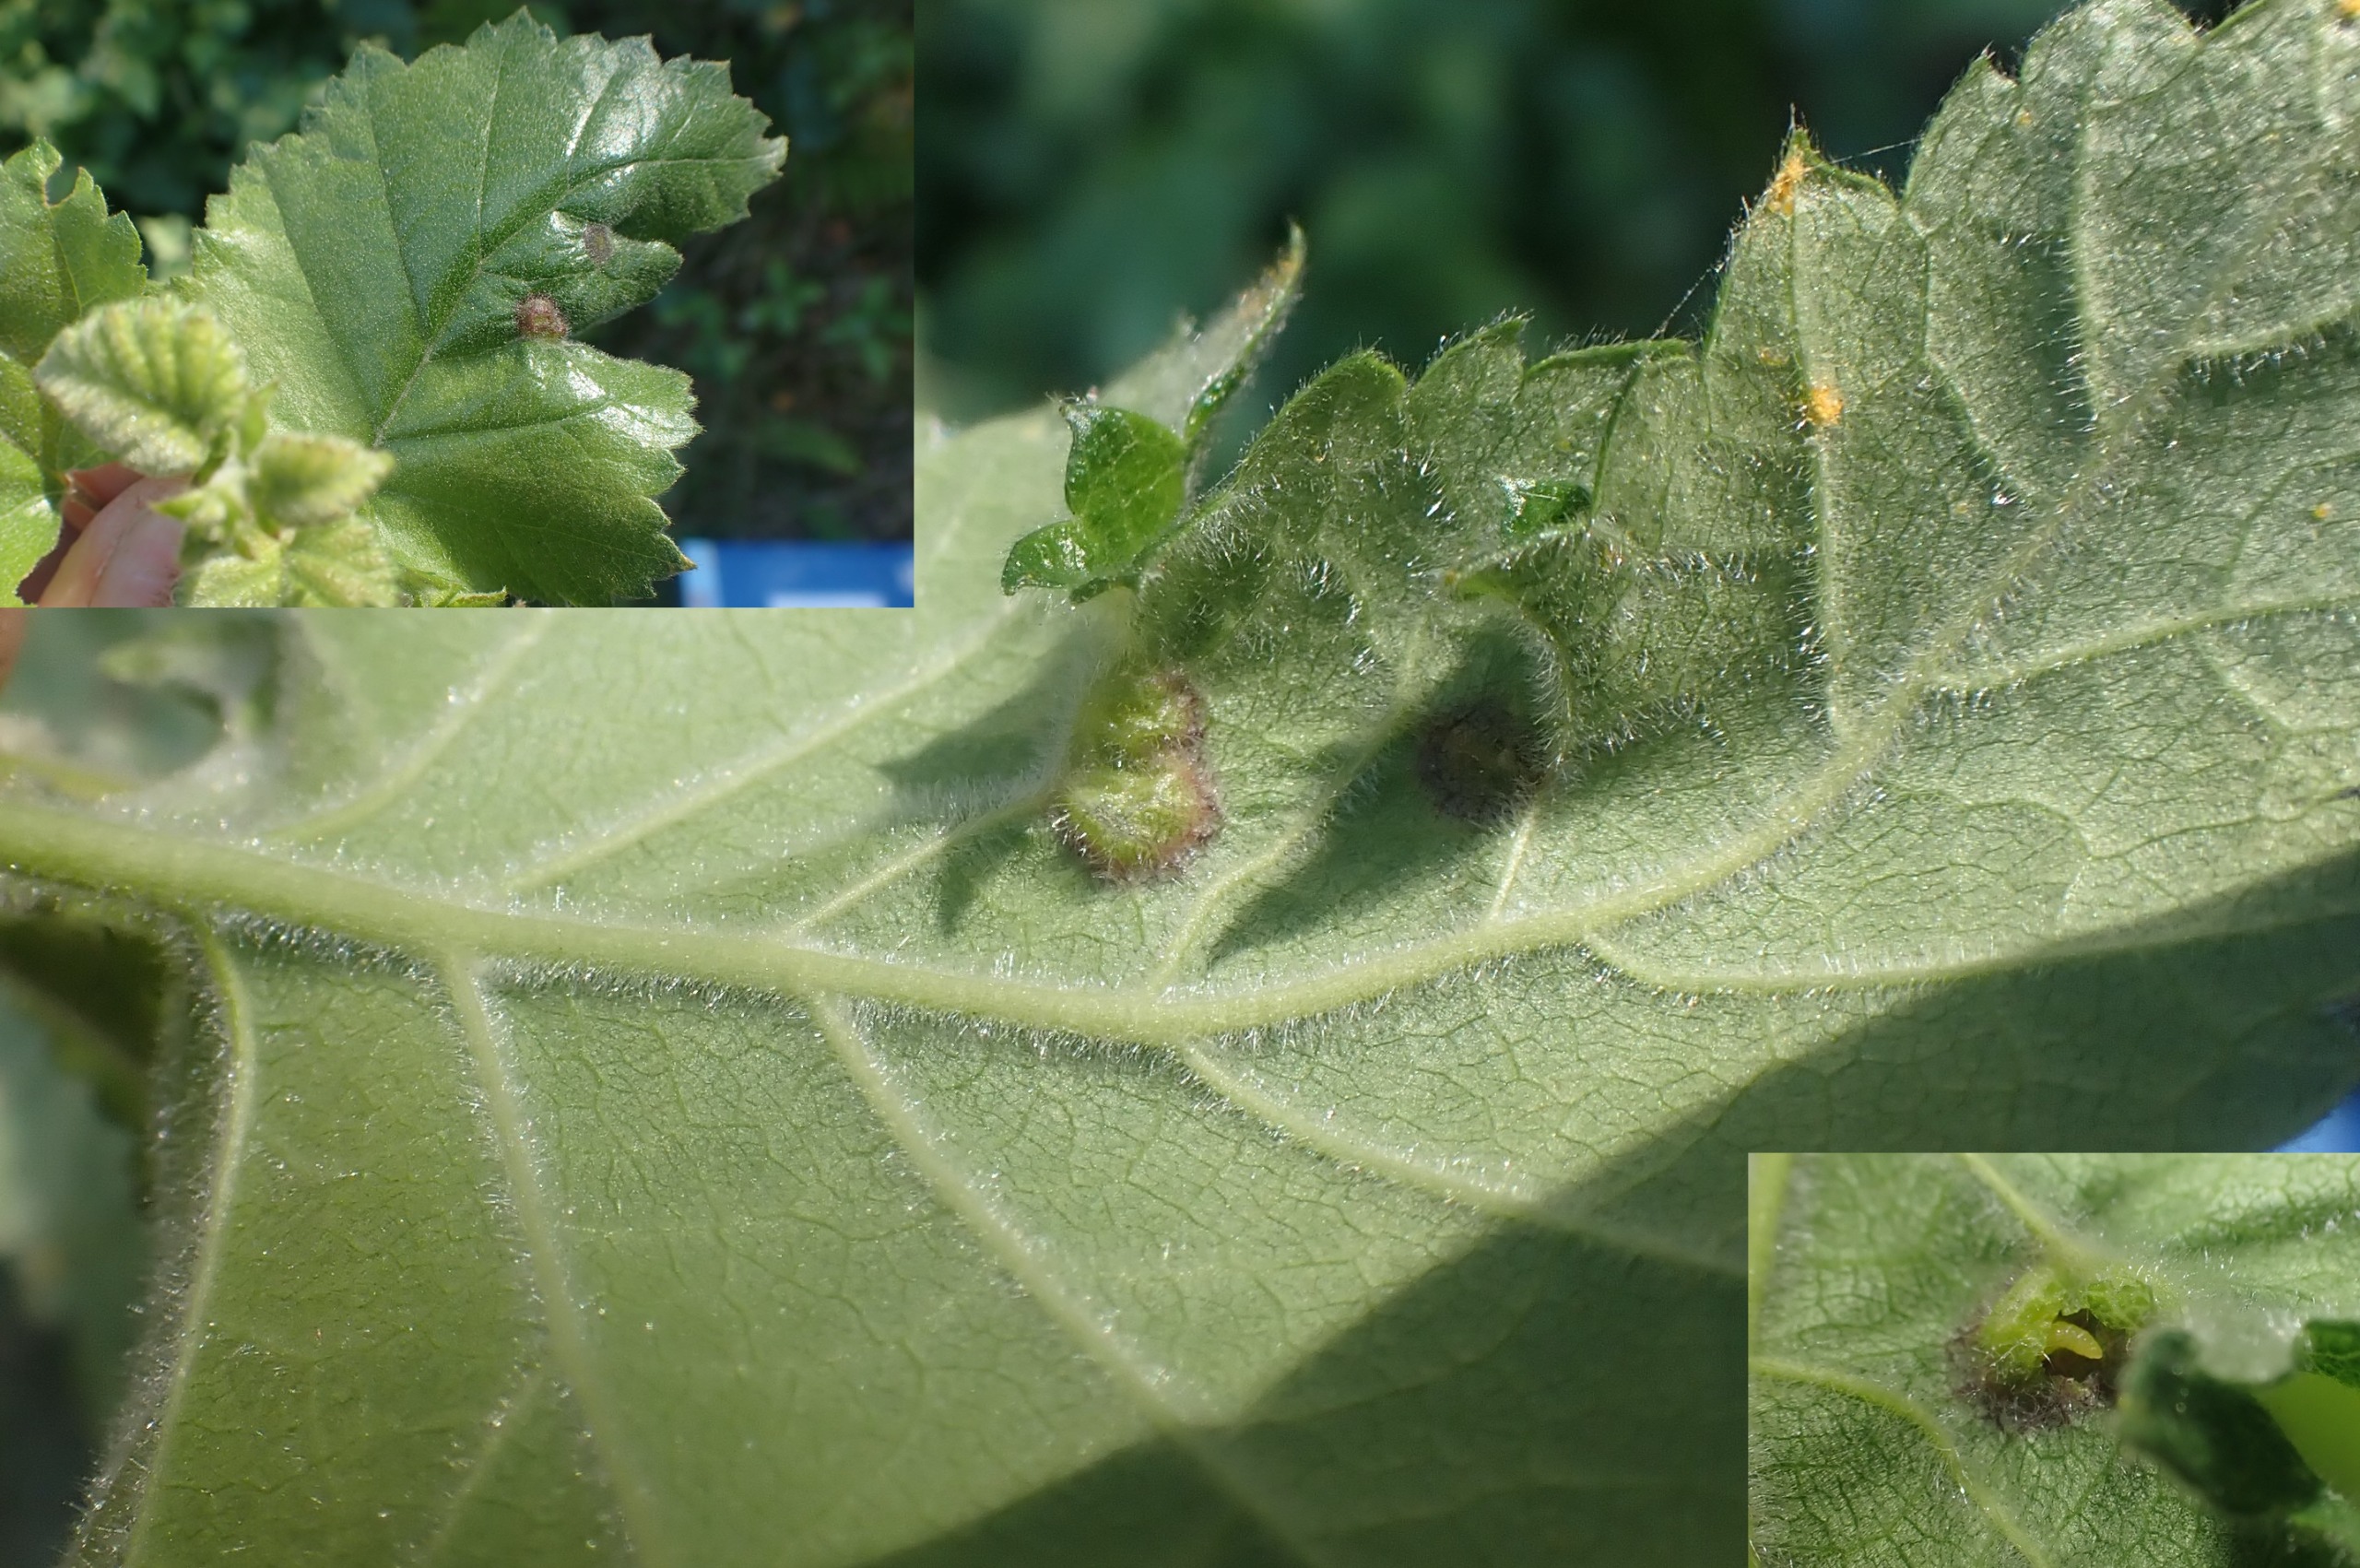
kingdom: Animalia
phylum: Arthropoda
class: Insecta
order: Diptera
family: Cecidomyiidae
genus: Anisostephus
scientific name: Anisostephus betulinus
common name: Birkeblæregalmyg
